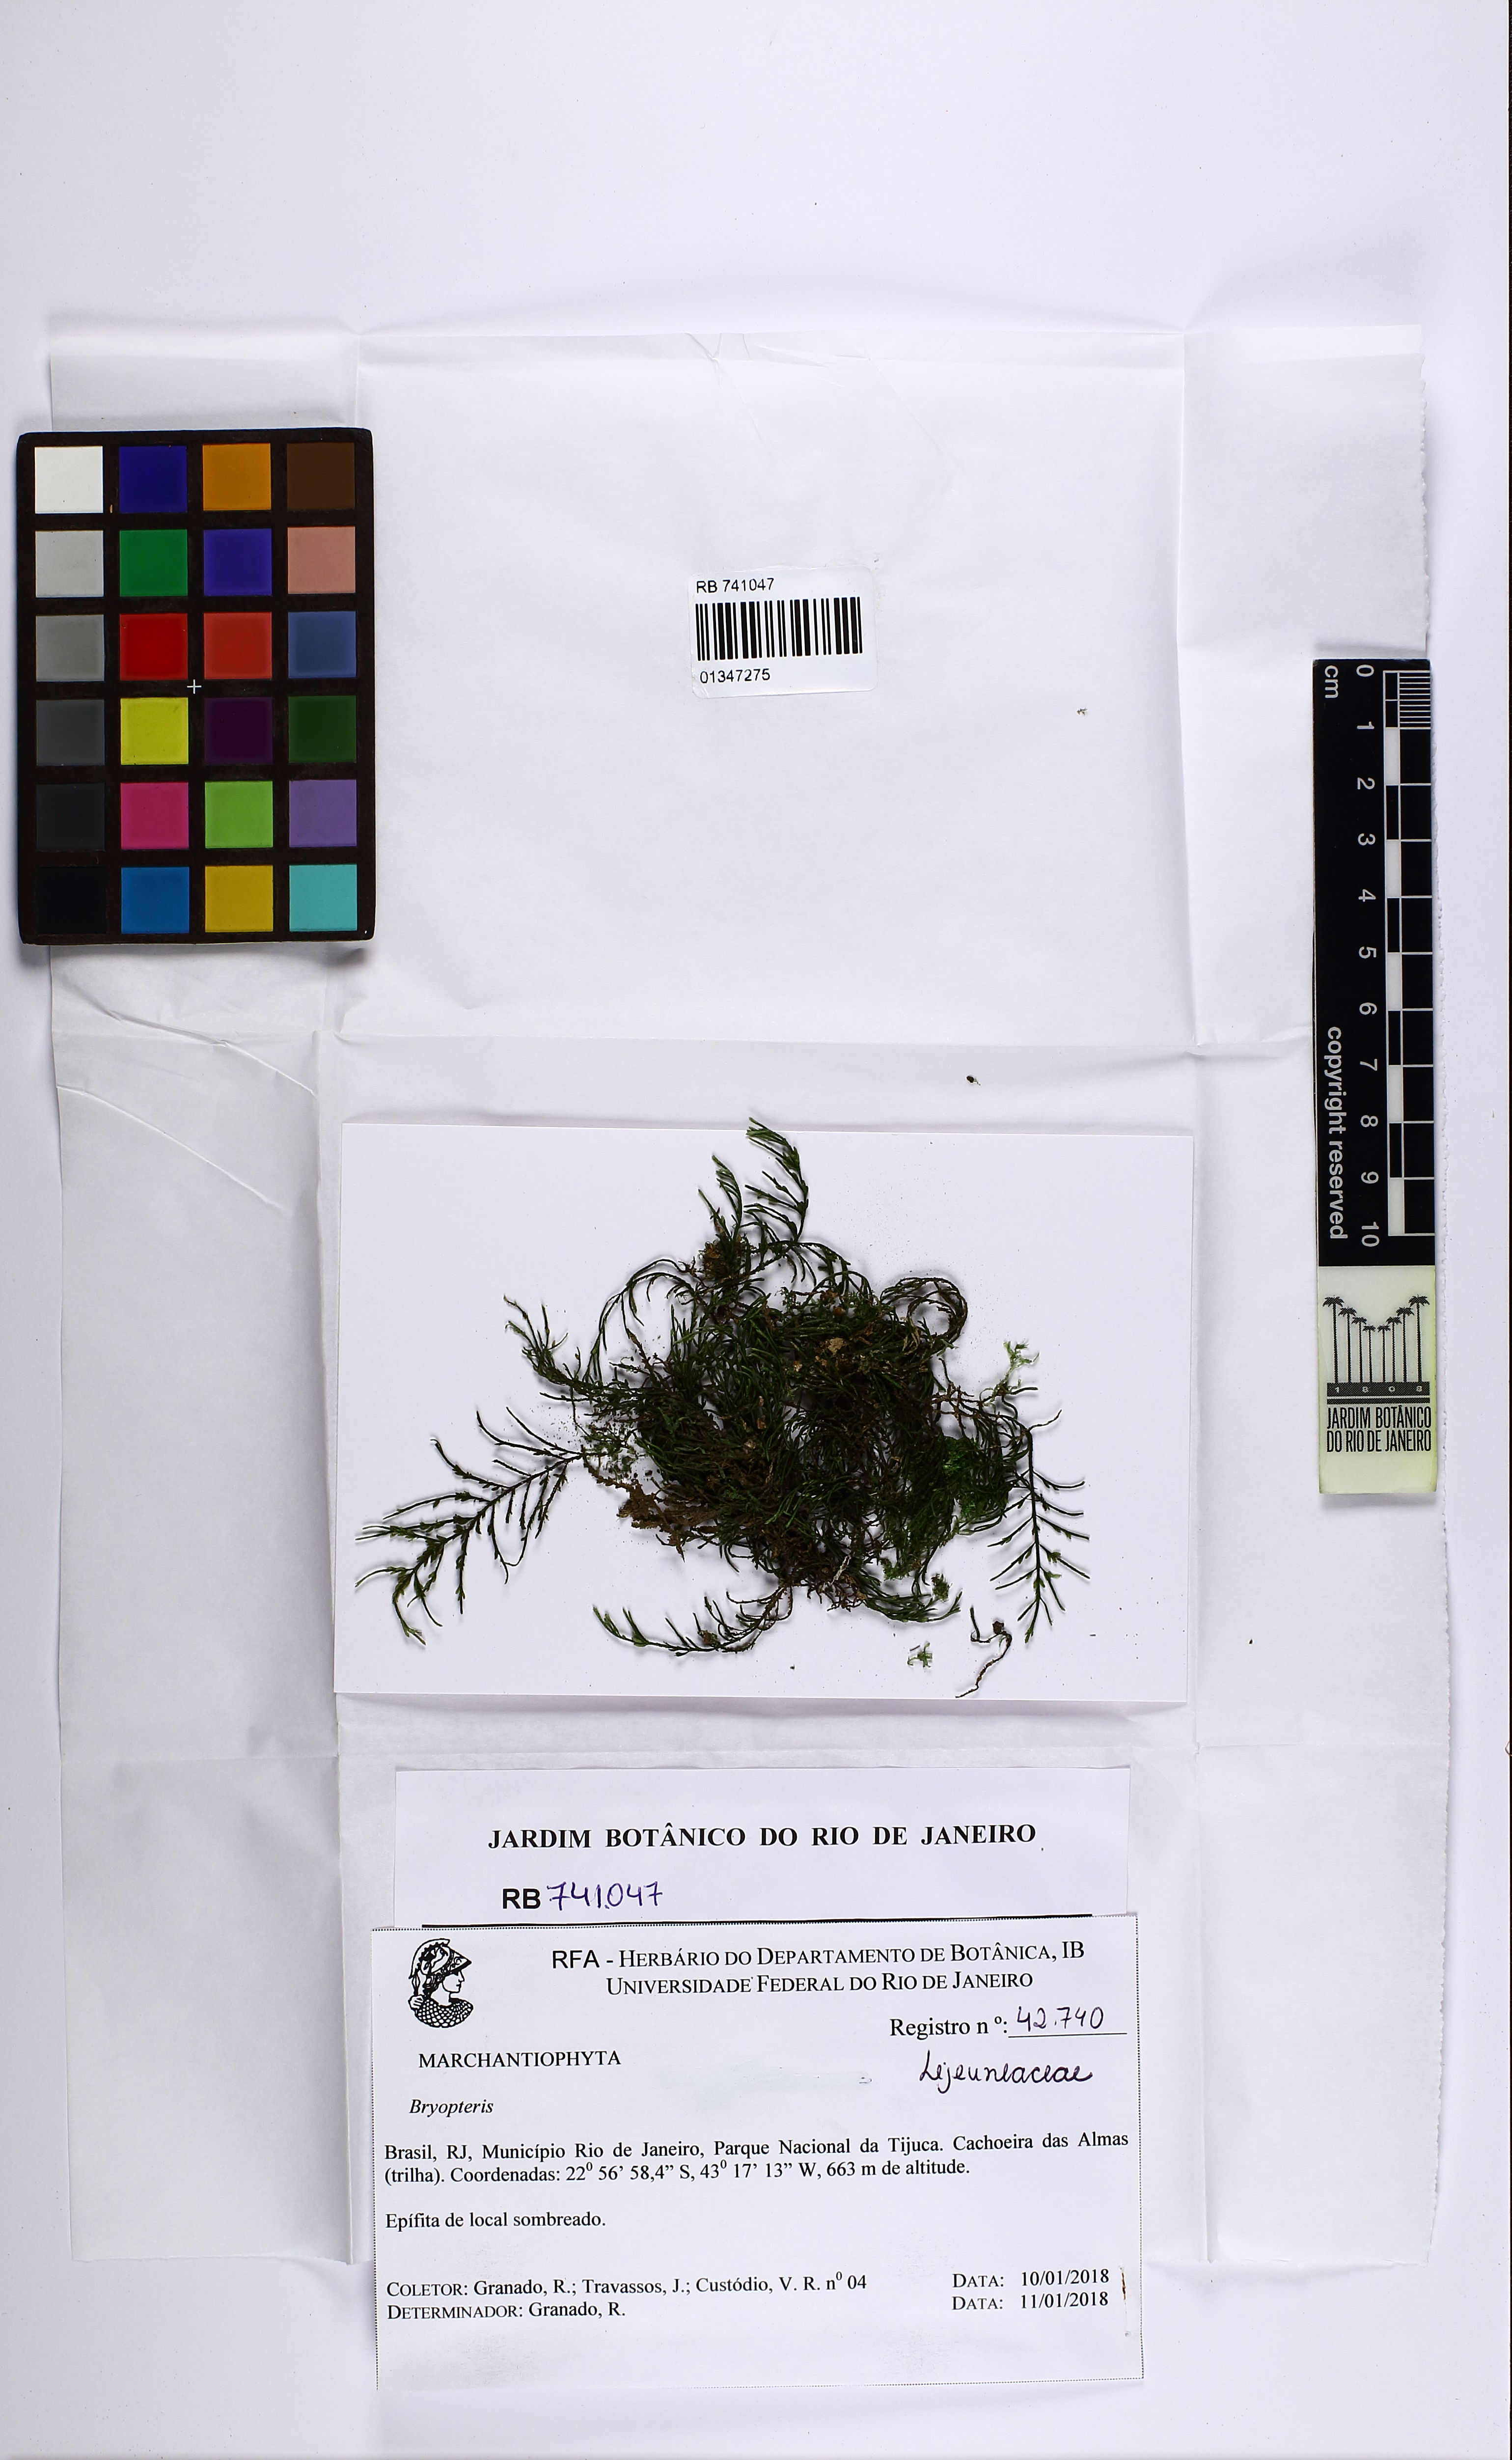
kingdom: Plantae
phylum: Marchantiophyta
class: Jungermanniopsida
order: Porellales
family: Lejeuneaceae
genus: Bryopteris
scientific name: Bryopteris
